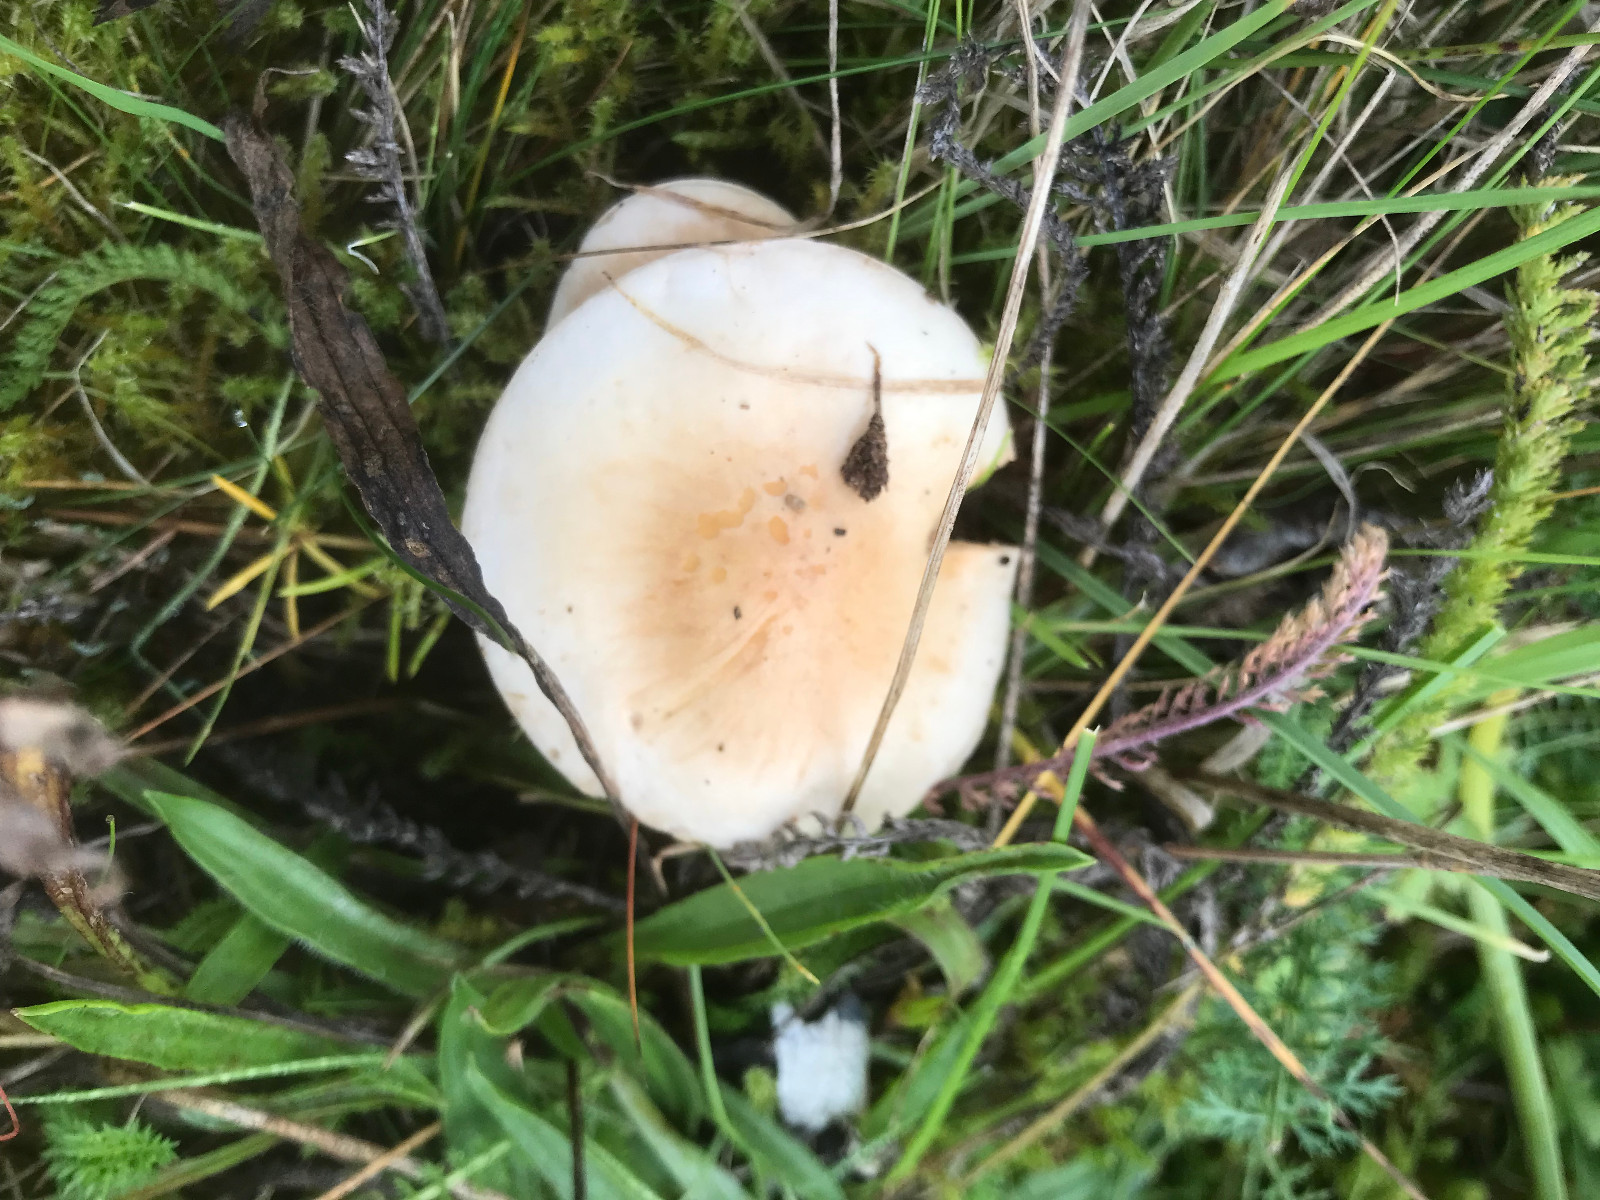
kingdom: Fungi
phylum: Basidiomycota
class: Agaricomycetes
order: Agaricales
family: Hymenogastraceae
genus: Hebeloma
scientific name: Hebeloma crustuliniforme
